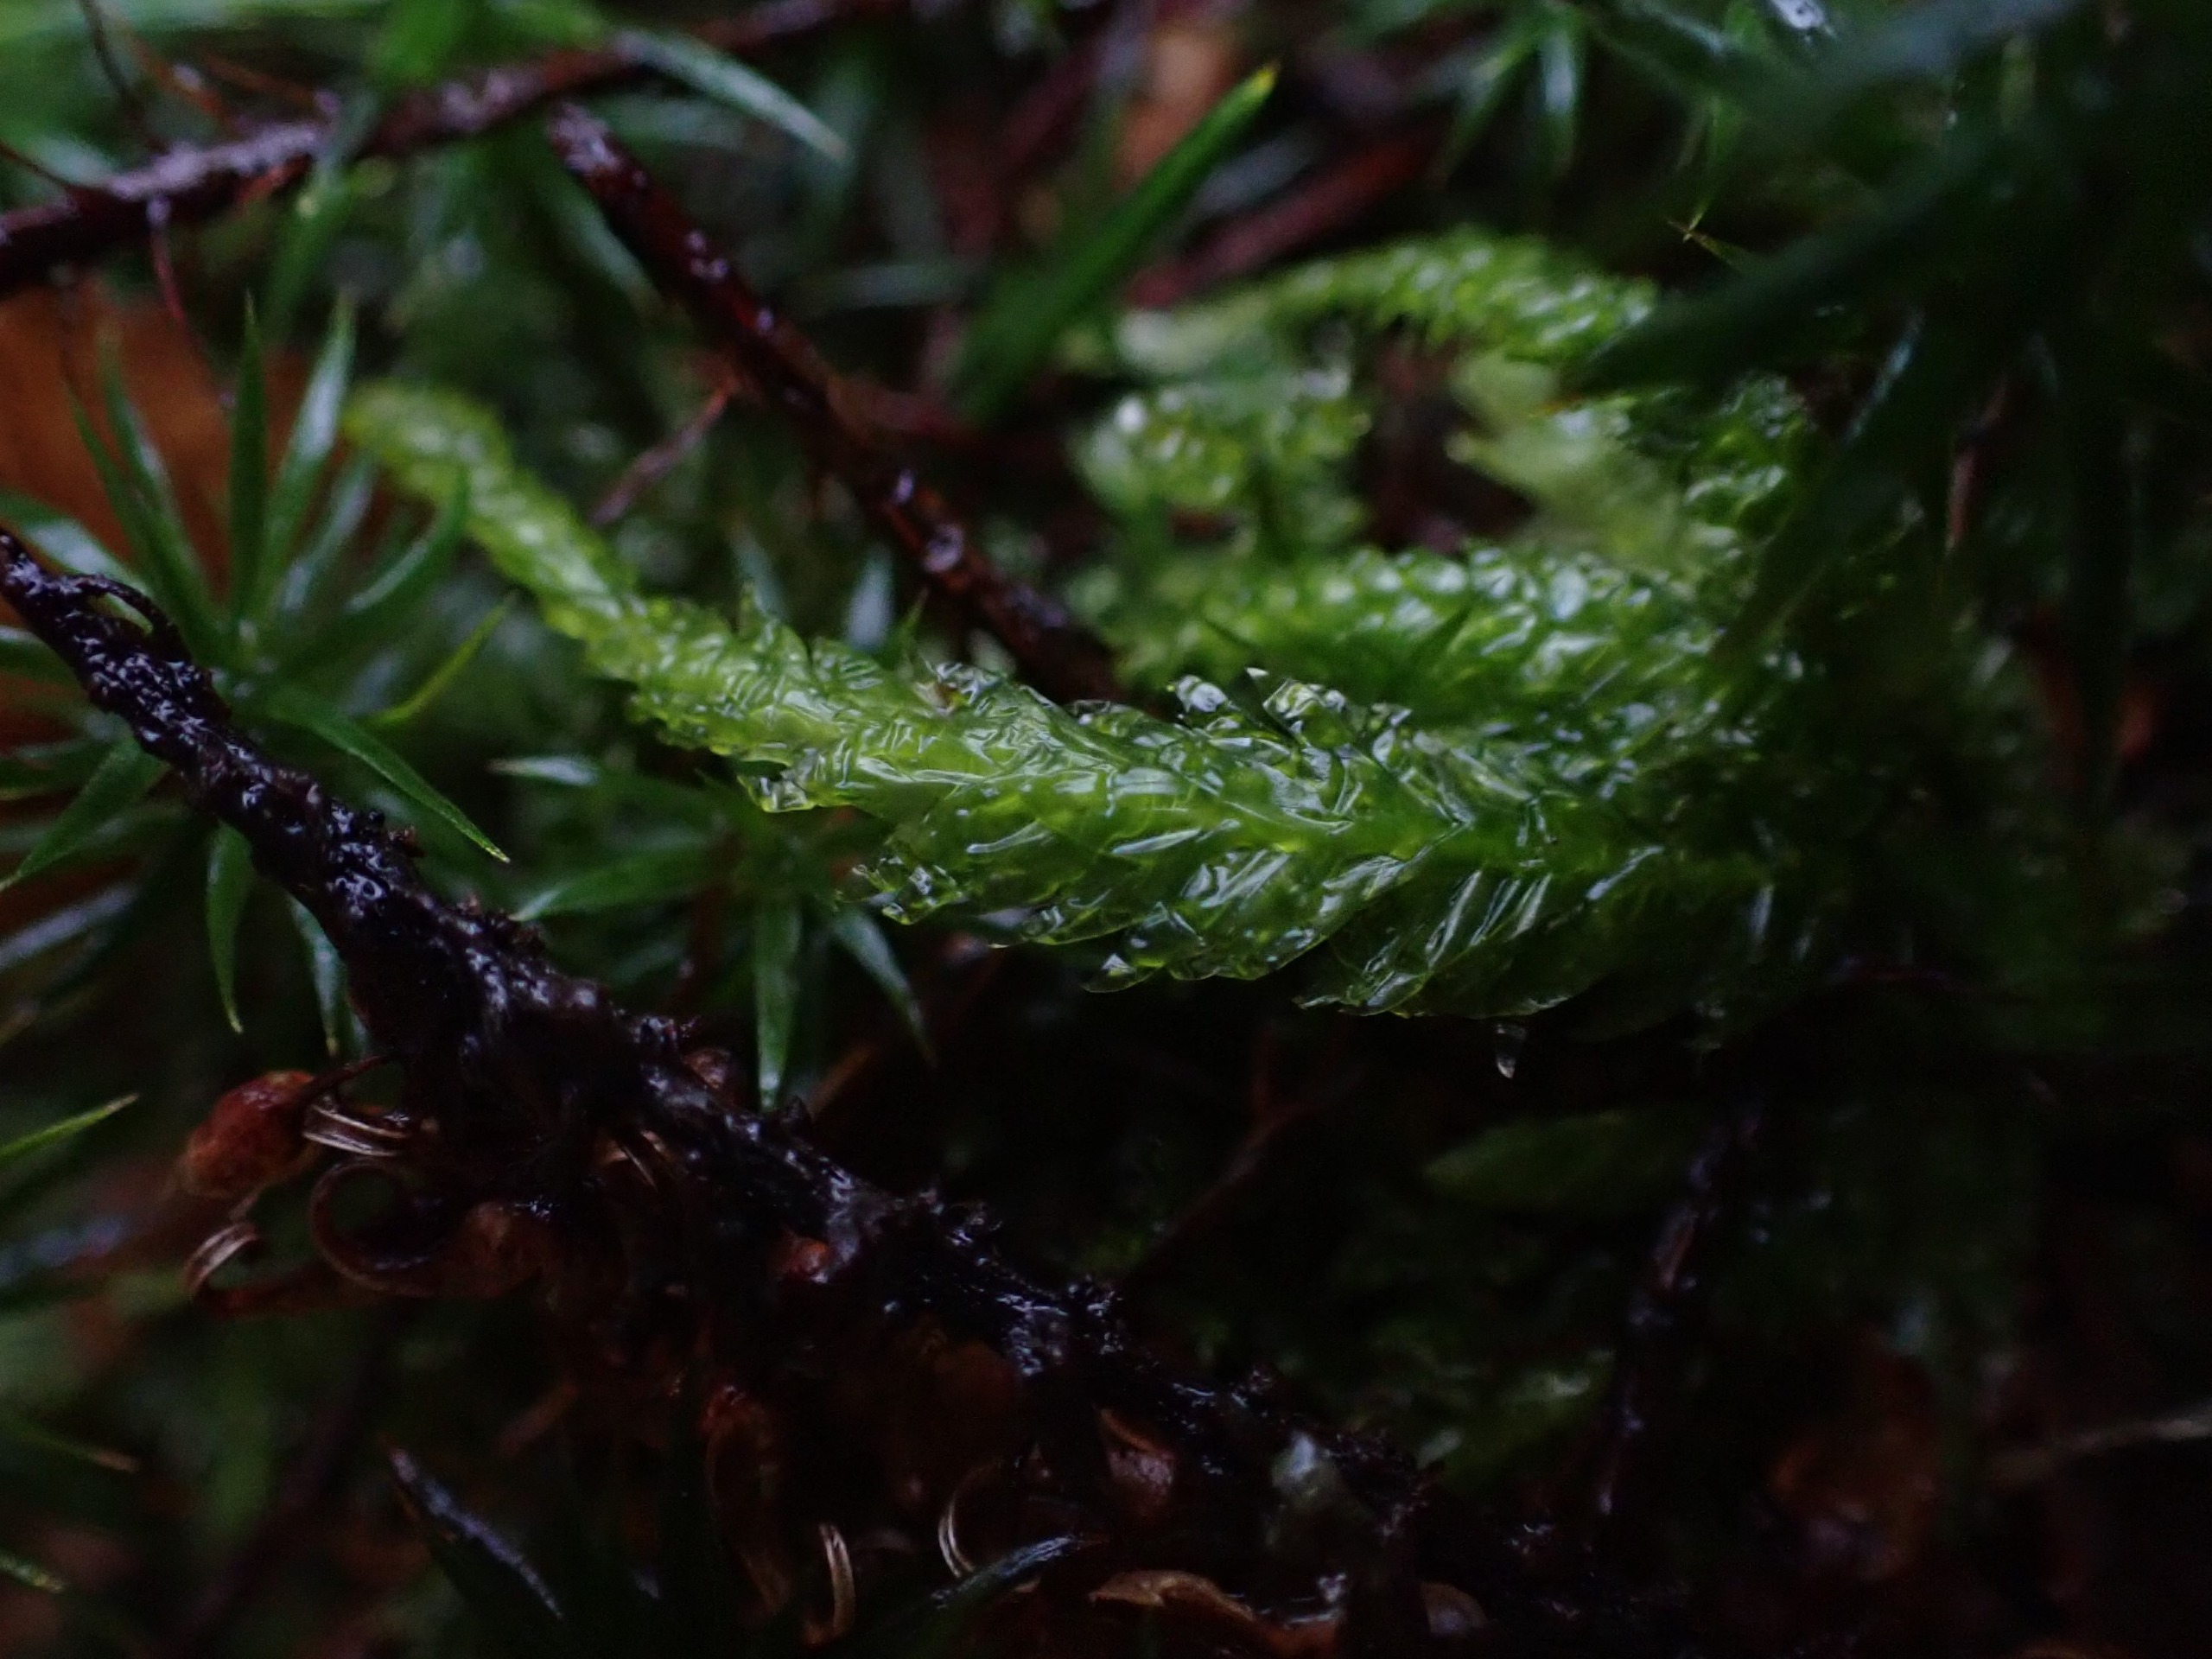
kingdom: Plantae
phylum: Bryophyta
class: Bryopsida
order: Hypnales
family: Plagiotheciaceae
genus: Plagiothecium
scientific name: Plagiothecium undulatum
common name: Bølget tæppemos
